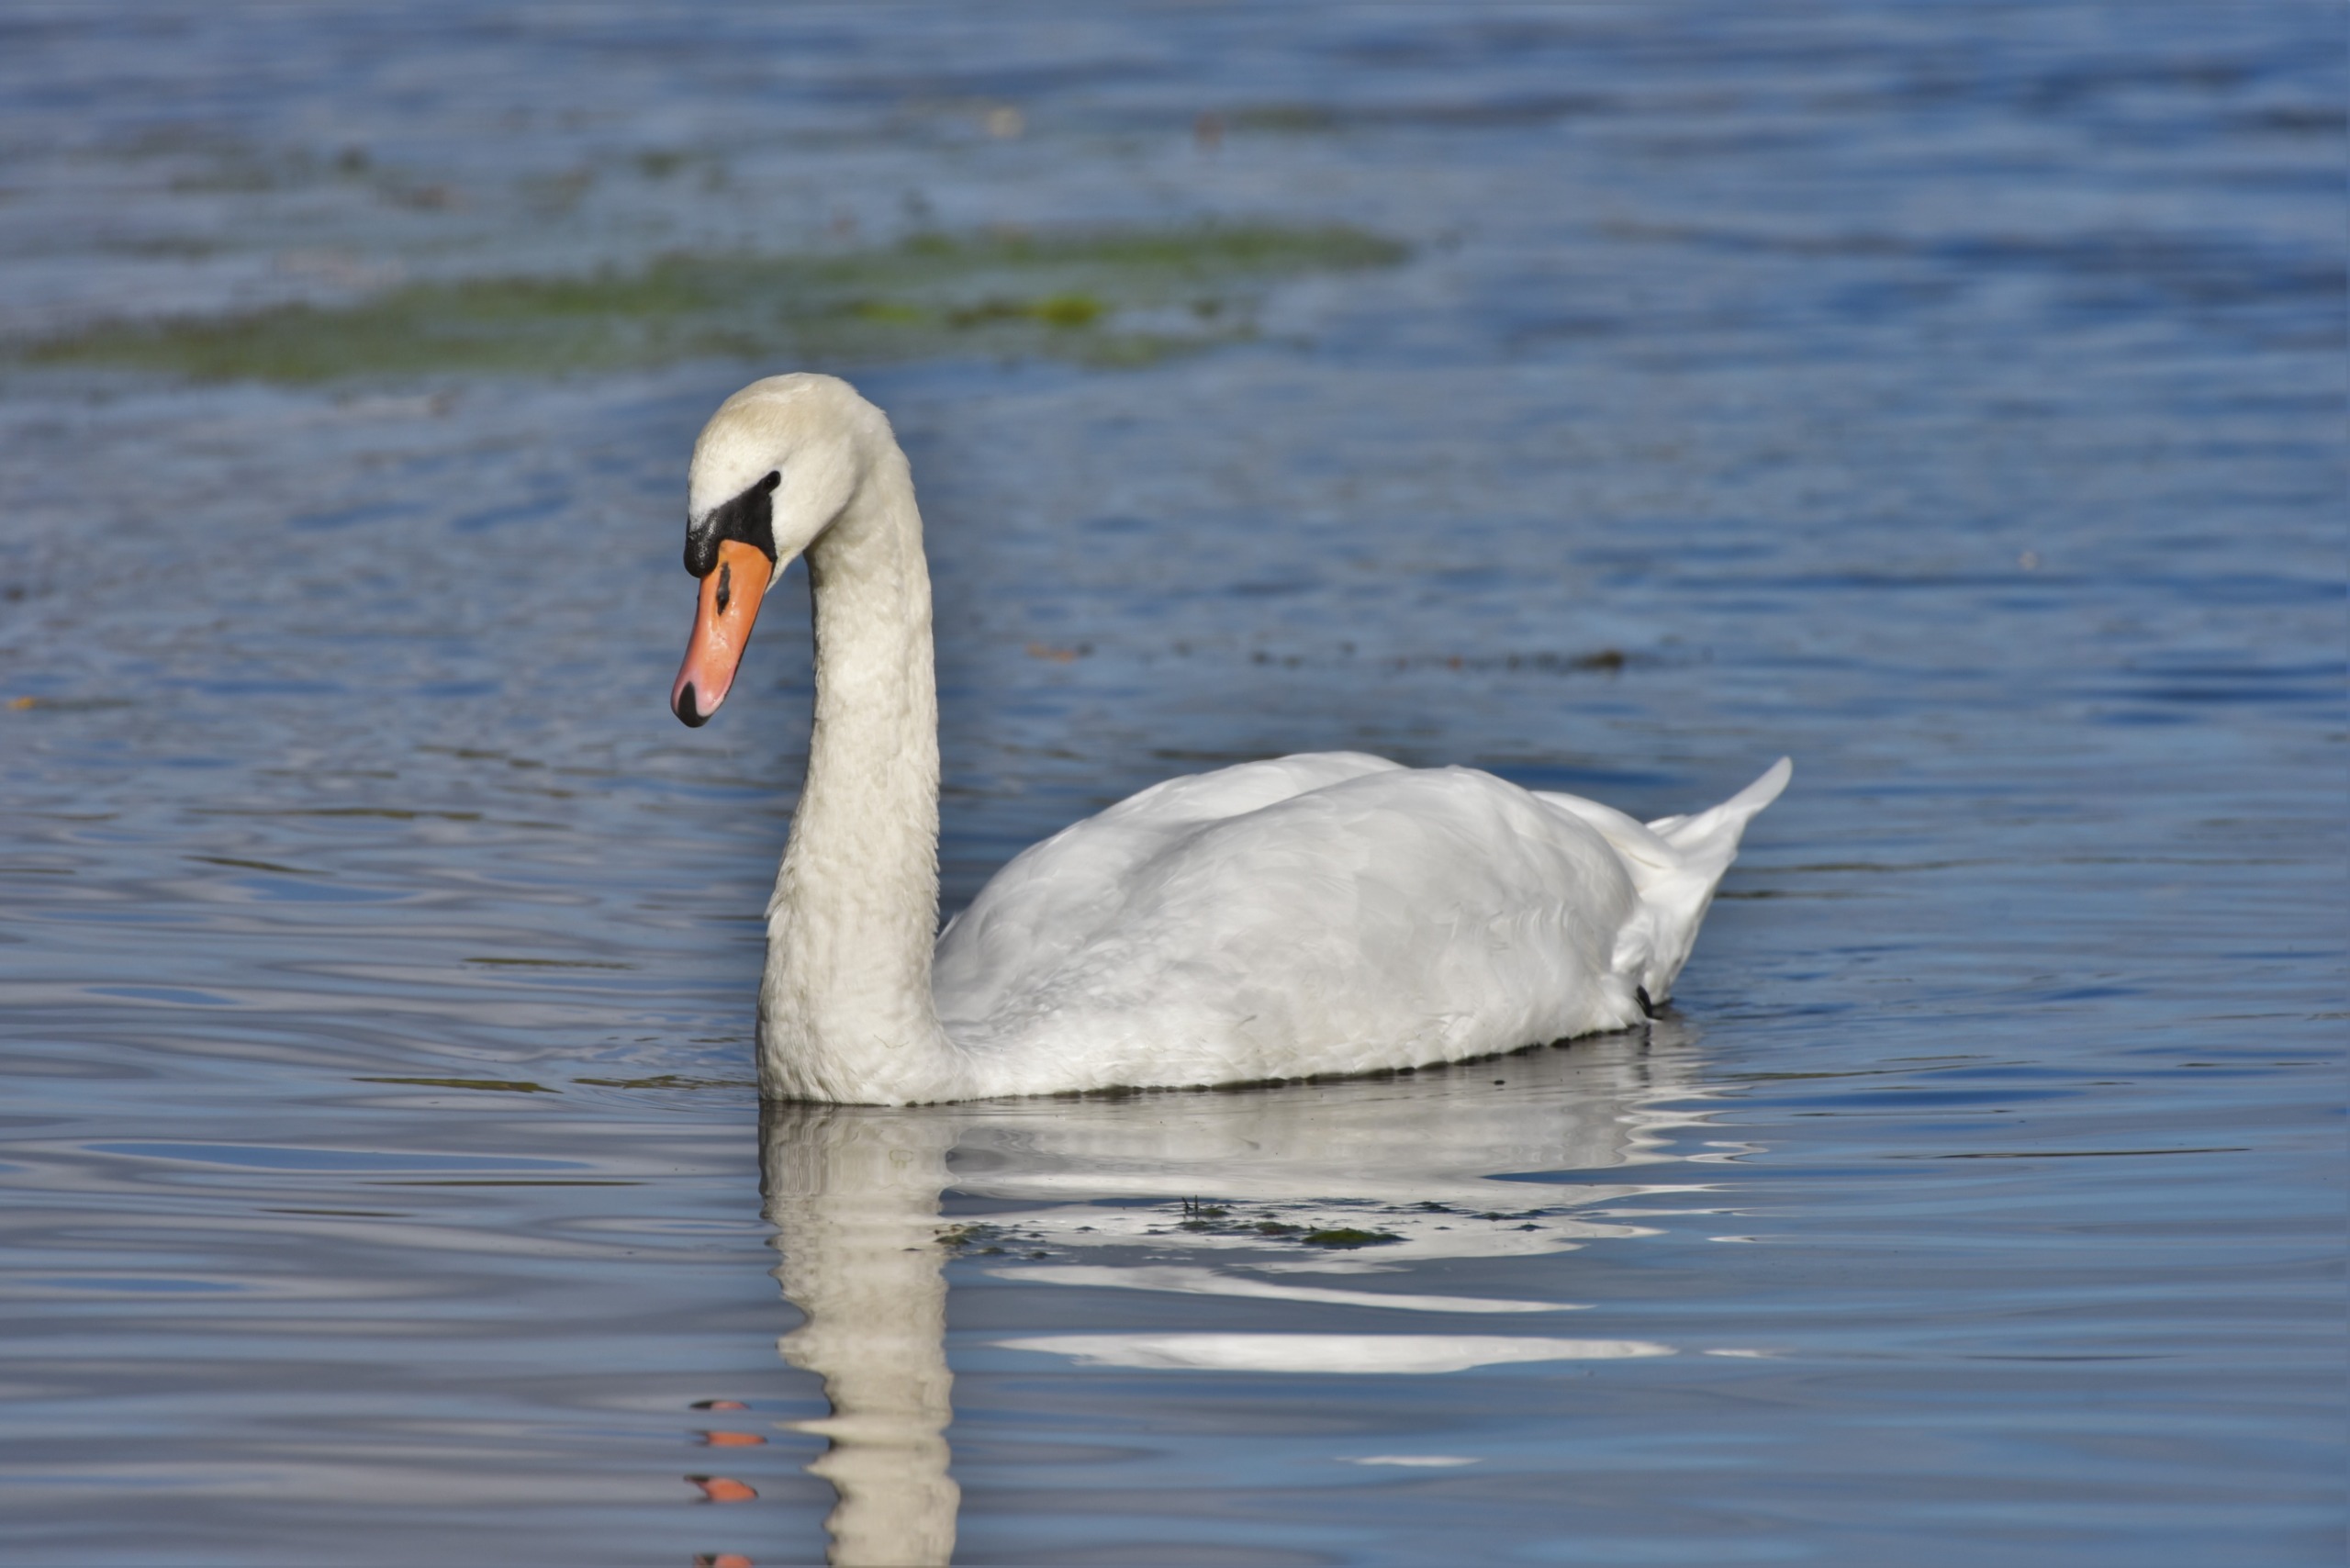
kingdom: Animalia
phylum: Chordata
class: Aves
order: Anseriformes
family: Anatidae
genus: Cygnus
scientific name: Cygnus olor
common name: Knopsvane
